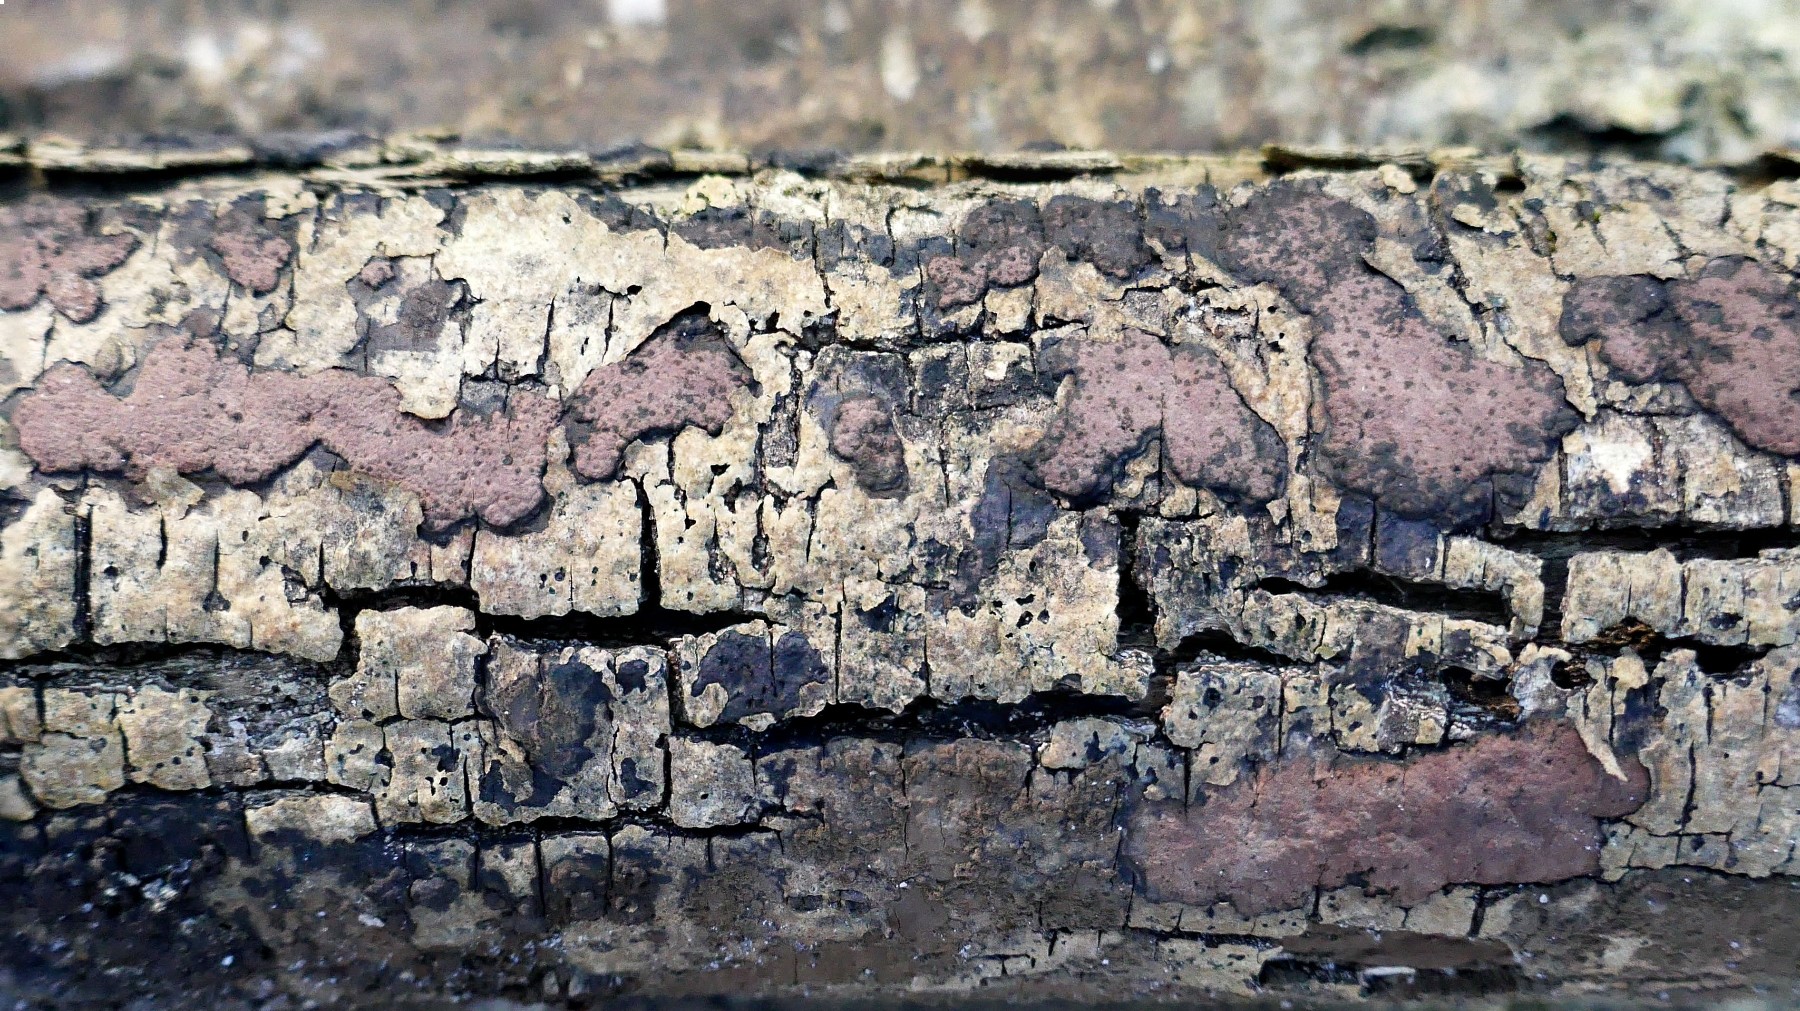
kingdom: Fungi
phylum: Ascomycota
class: Sordariomycetes
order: Xylariales
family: Hypoxylaceae
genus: Hypoxylon
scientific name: Hypoxylon petriniae
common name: nedsænket kulbær
